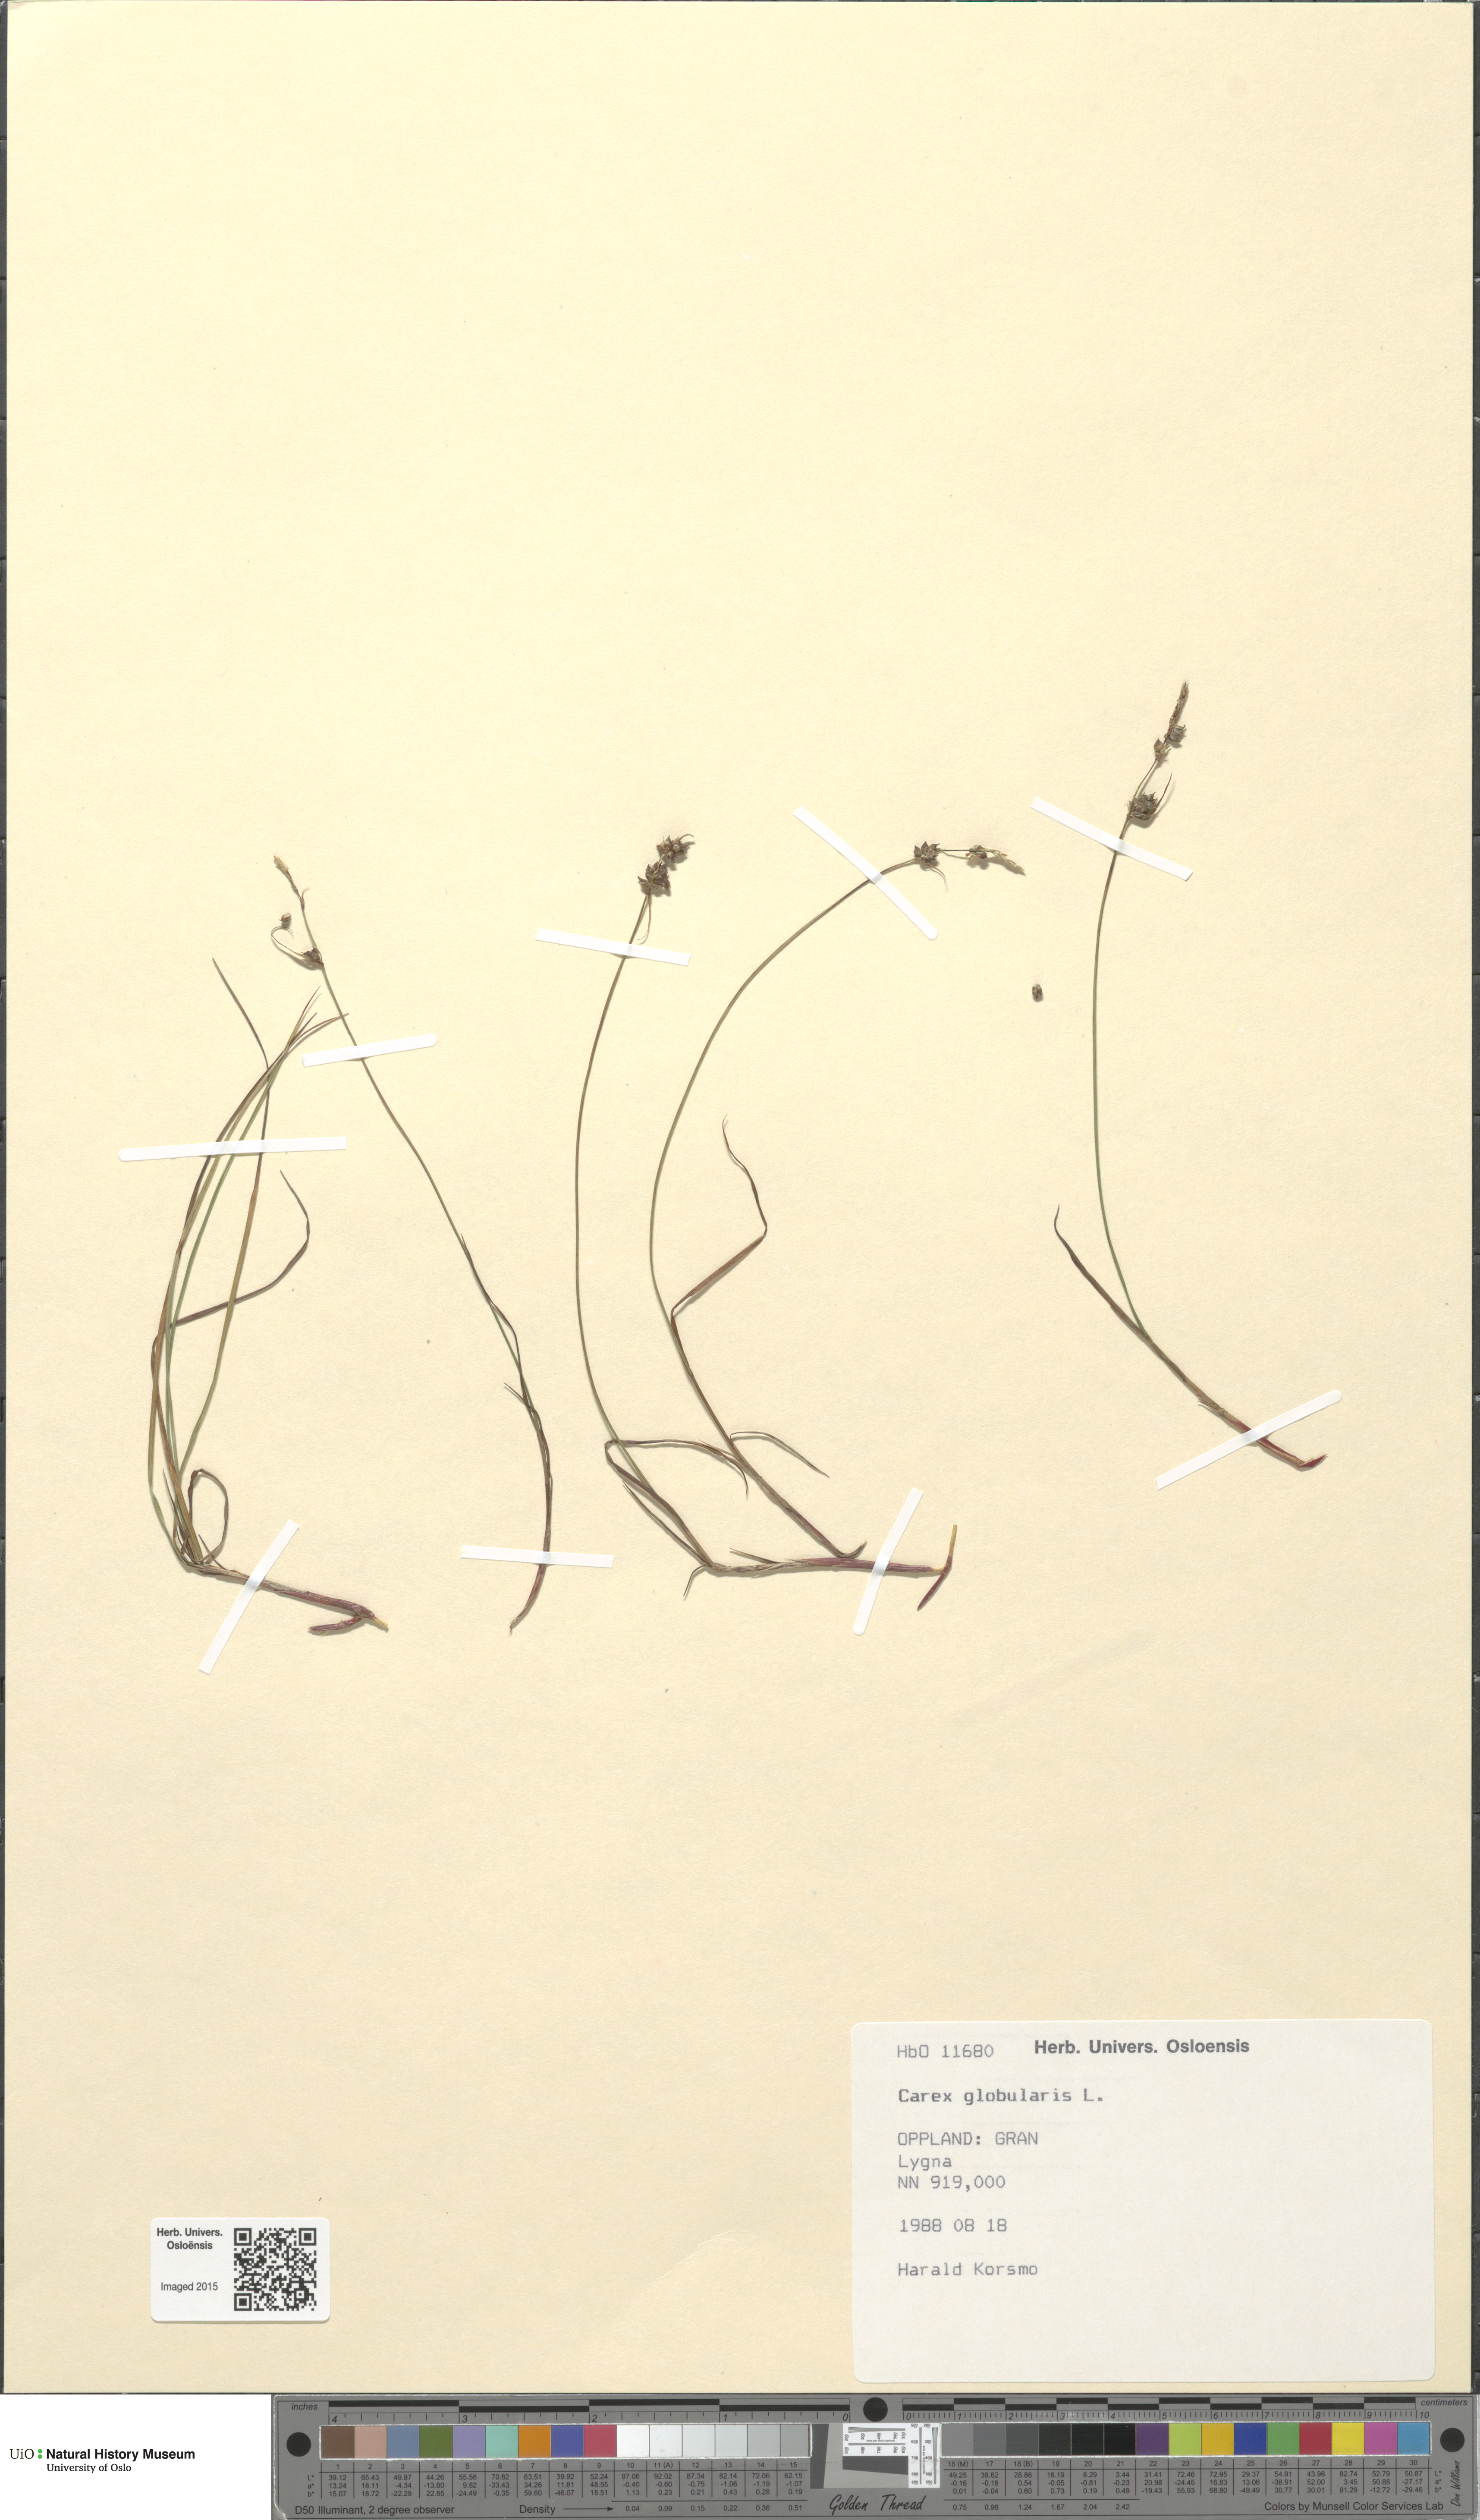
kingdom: Plantae
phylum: Tracheophyta
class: Liliopsida
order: Poales
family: Cyperaceae
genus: Carex
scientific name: Carex globularis
